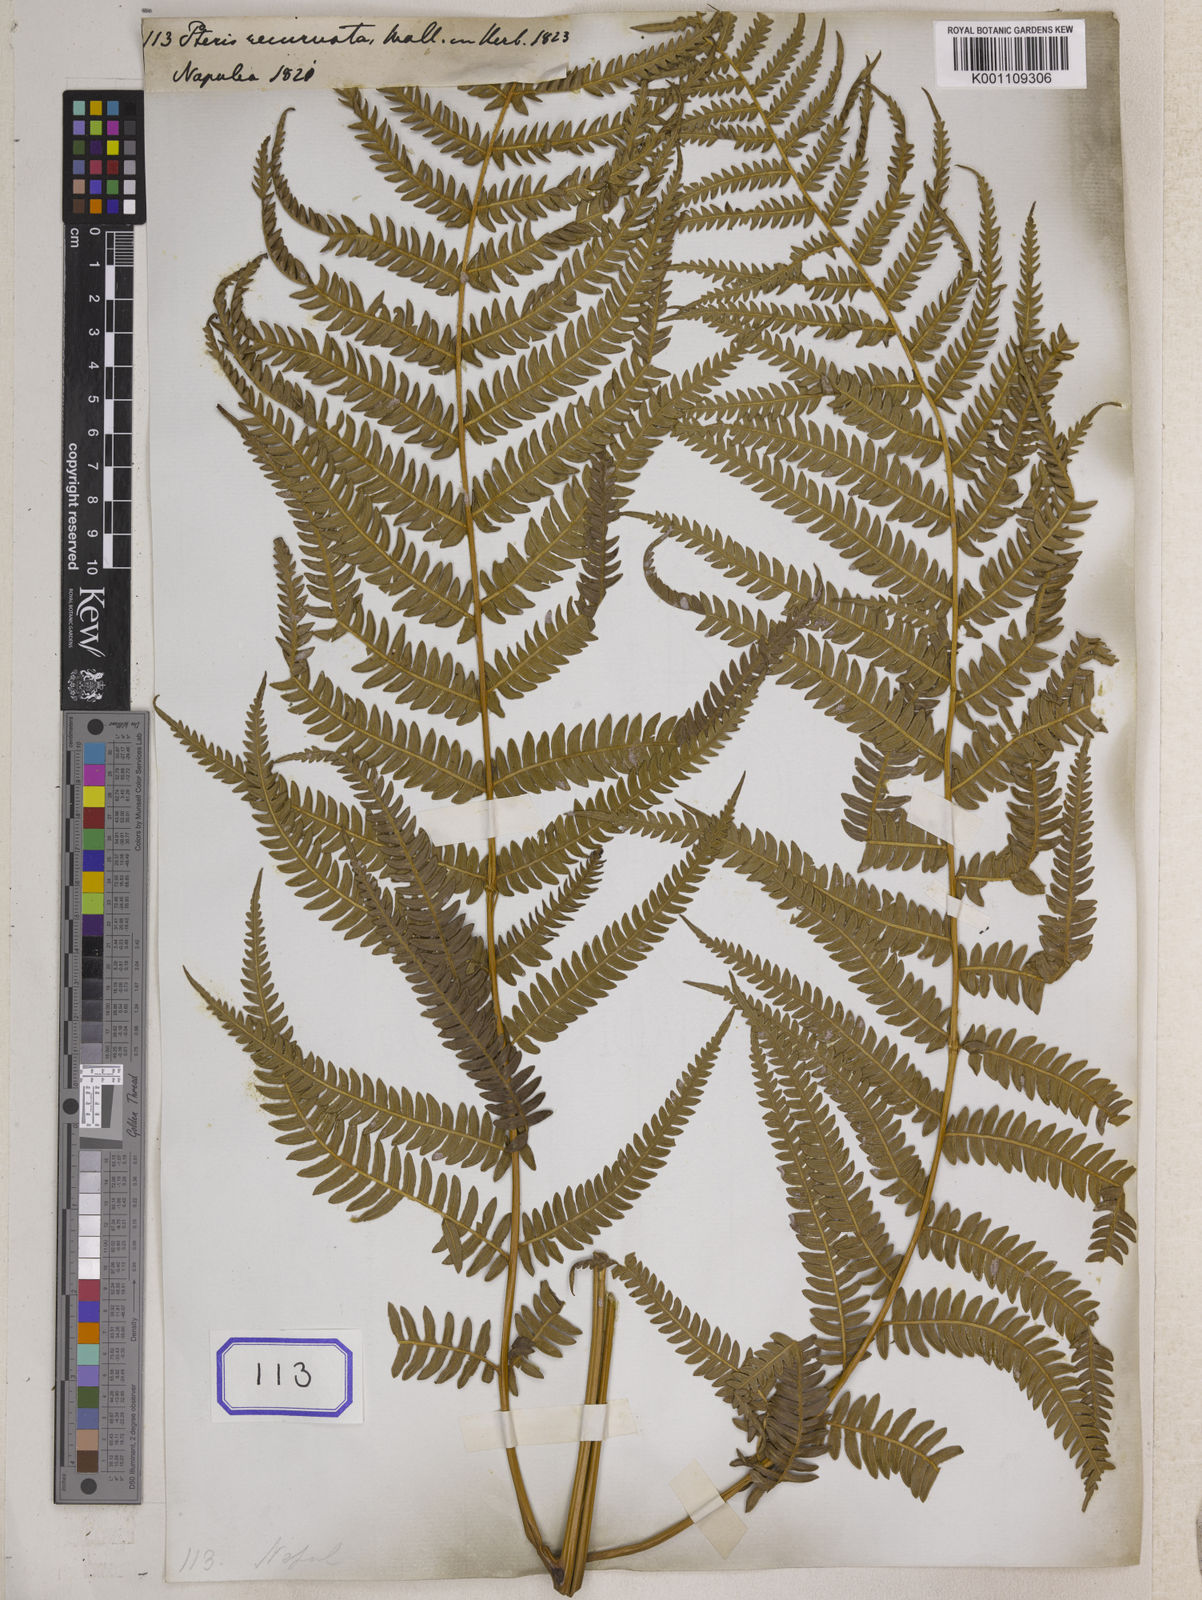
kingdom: Plantae
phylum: Tracheophyta
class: Polypodiopsida
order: Polypodiales
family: Dennstaedtiaceae
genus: Pteridium
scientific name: Pteridium aquilinum
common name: Bracken
